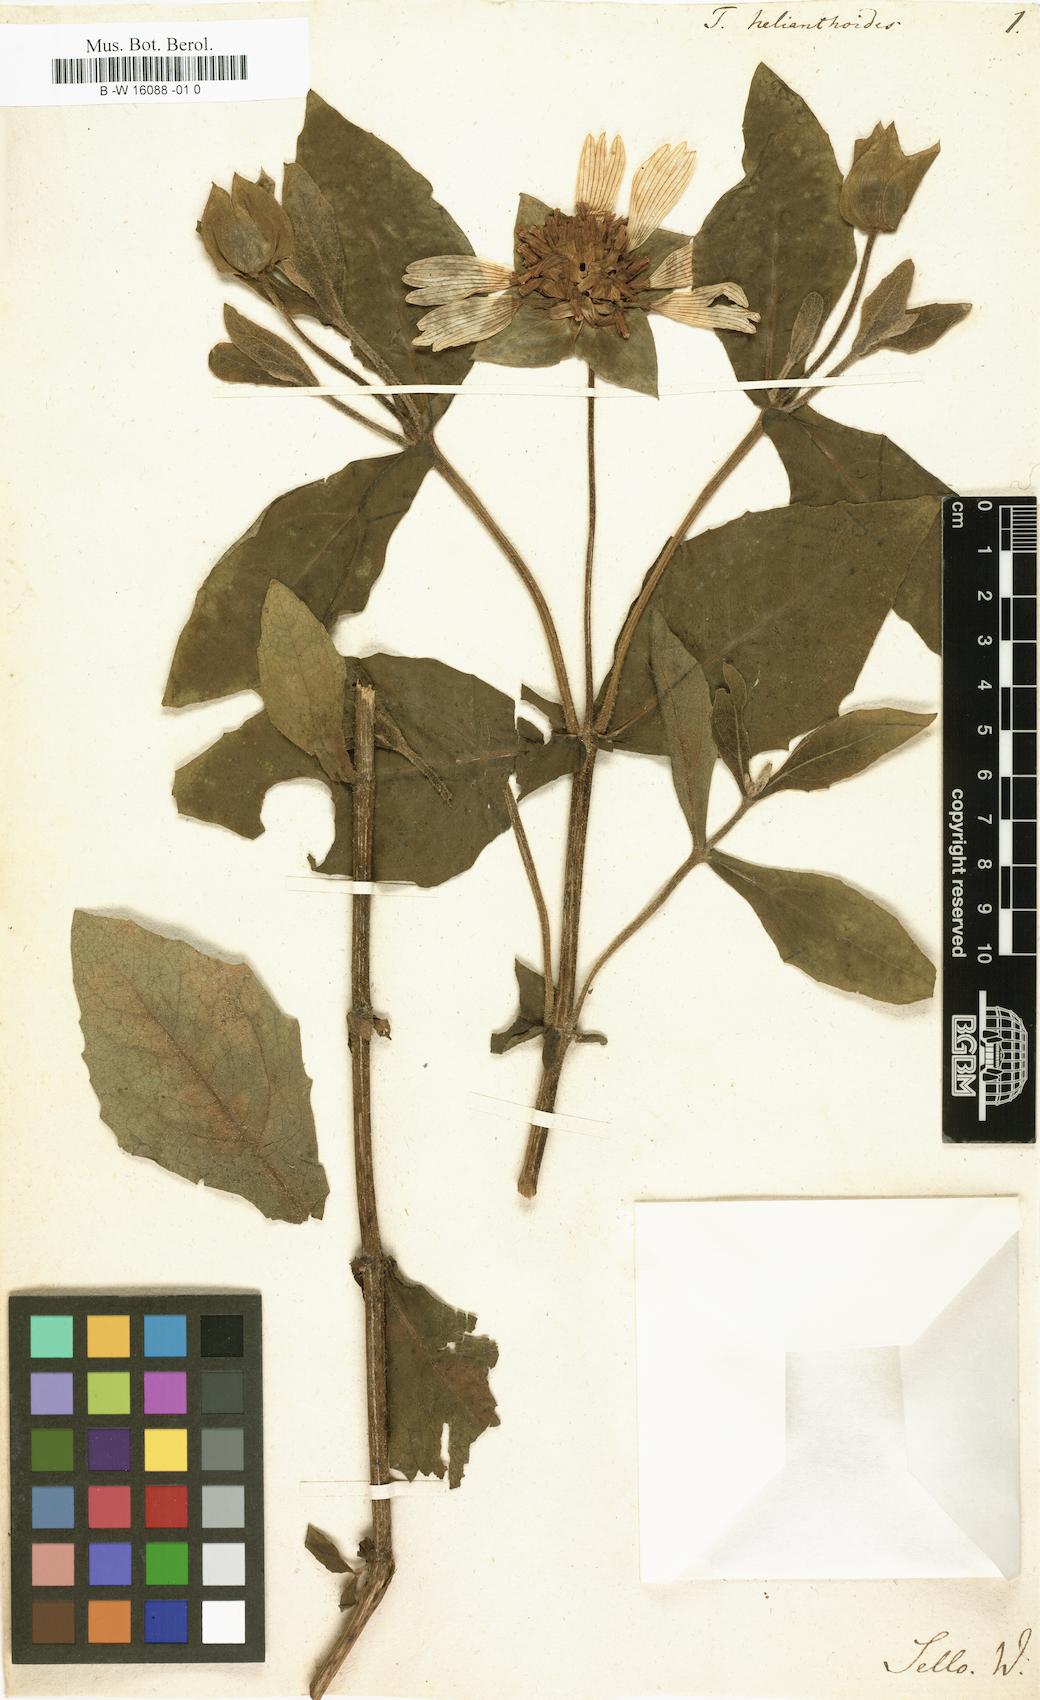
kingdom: Plantae
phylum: Tracheophyta
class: Magnoliopsida
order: Asterales
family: Asteraceae
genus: Tetragonotheca
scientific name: Tetragonotheca helianthoides
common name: Pineland-ginseng
